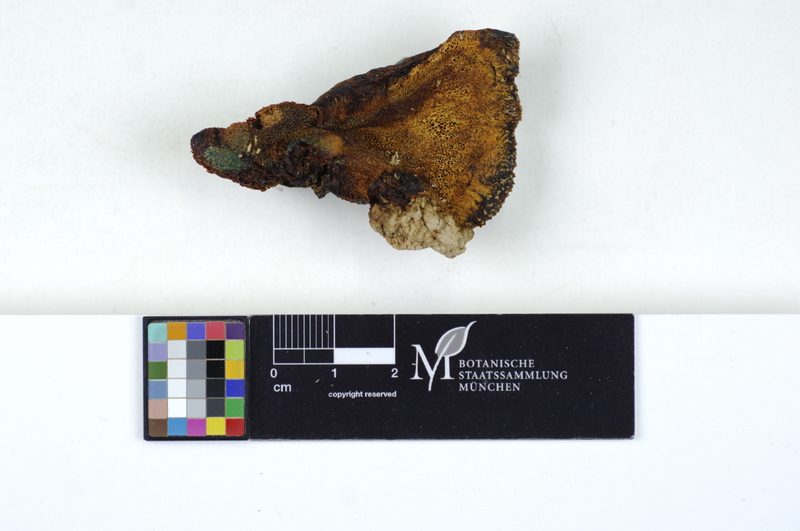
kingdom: Fungi
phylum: Basidiomycota
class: Agaricomycetes
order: Polyporales
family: Meruliaceae
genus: Pappia
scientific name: Pappia fissilis
